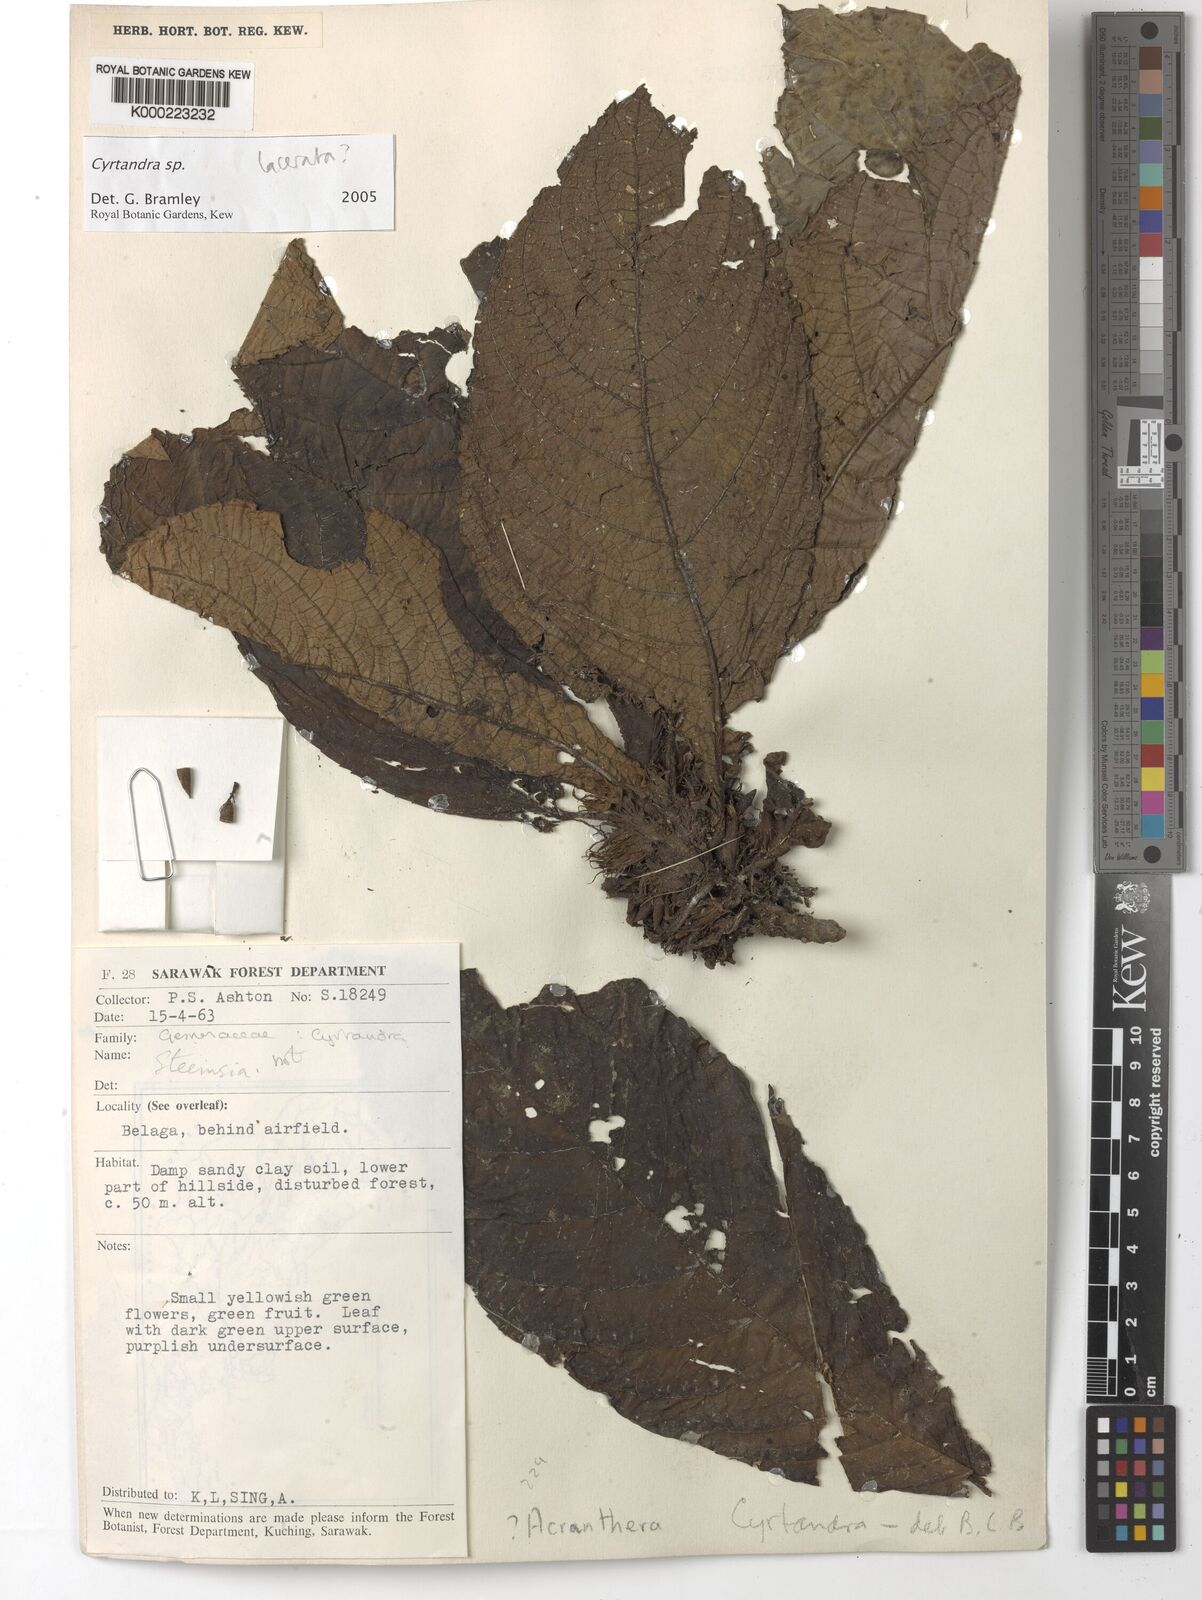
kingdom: Plantae
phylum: Tracheophyta
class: Magnoliopsida
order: Lamiales
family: Gesneriaceae
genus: Cyrtandra
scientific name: Cyrtandra
